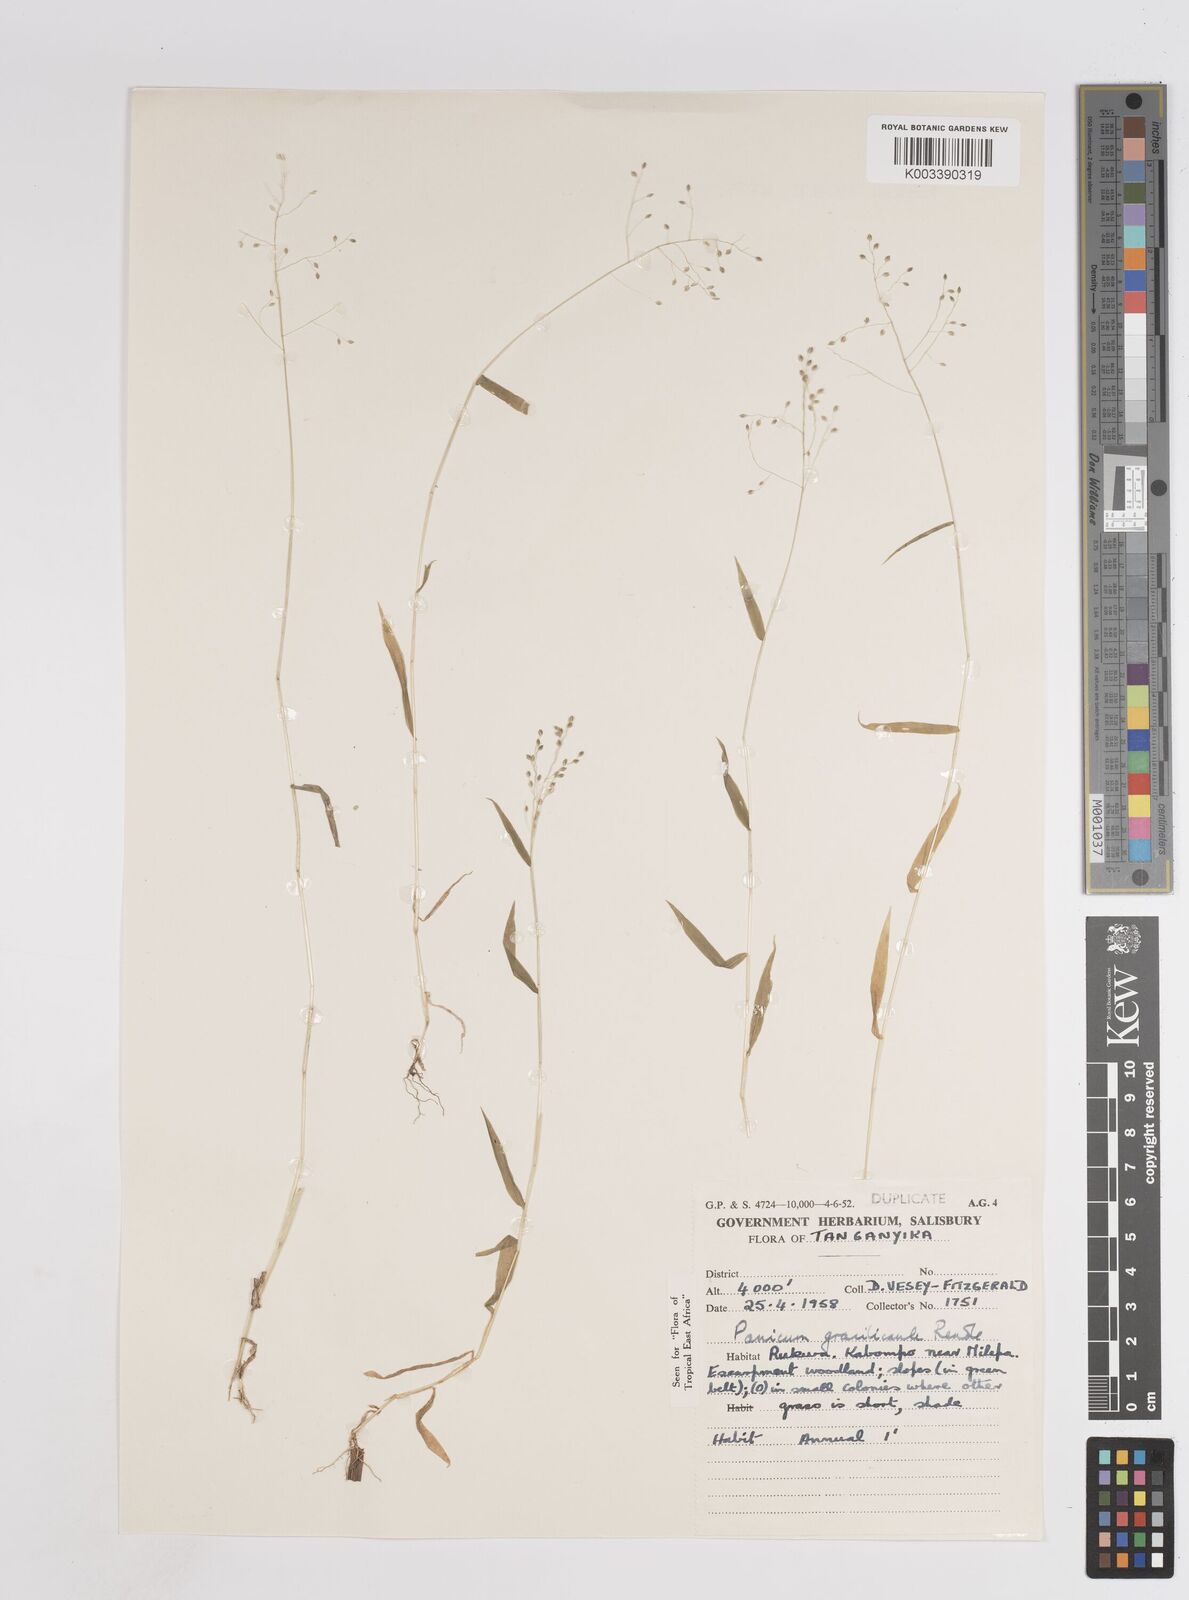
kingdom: Plantae
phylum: Tracheophyta
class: Liliopsida
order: Poales
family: Poaceae
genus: Trichanthecium
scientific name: Trichanthecium gracilicaule
